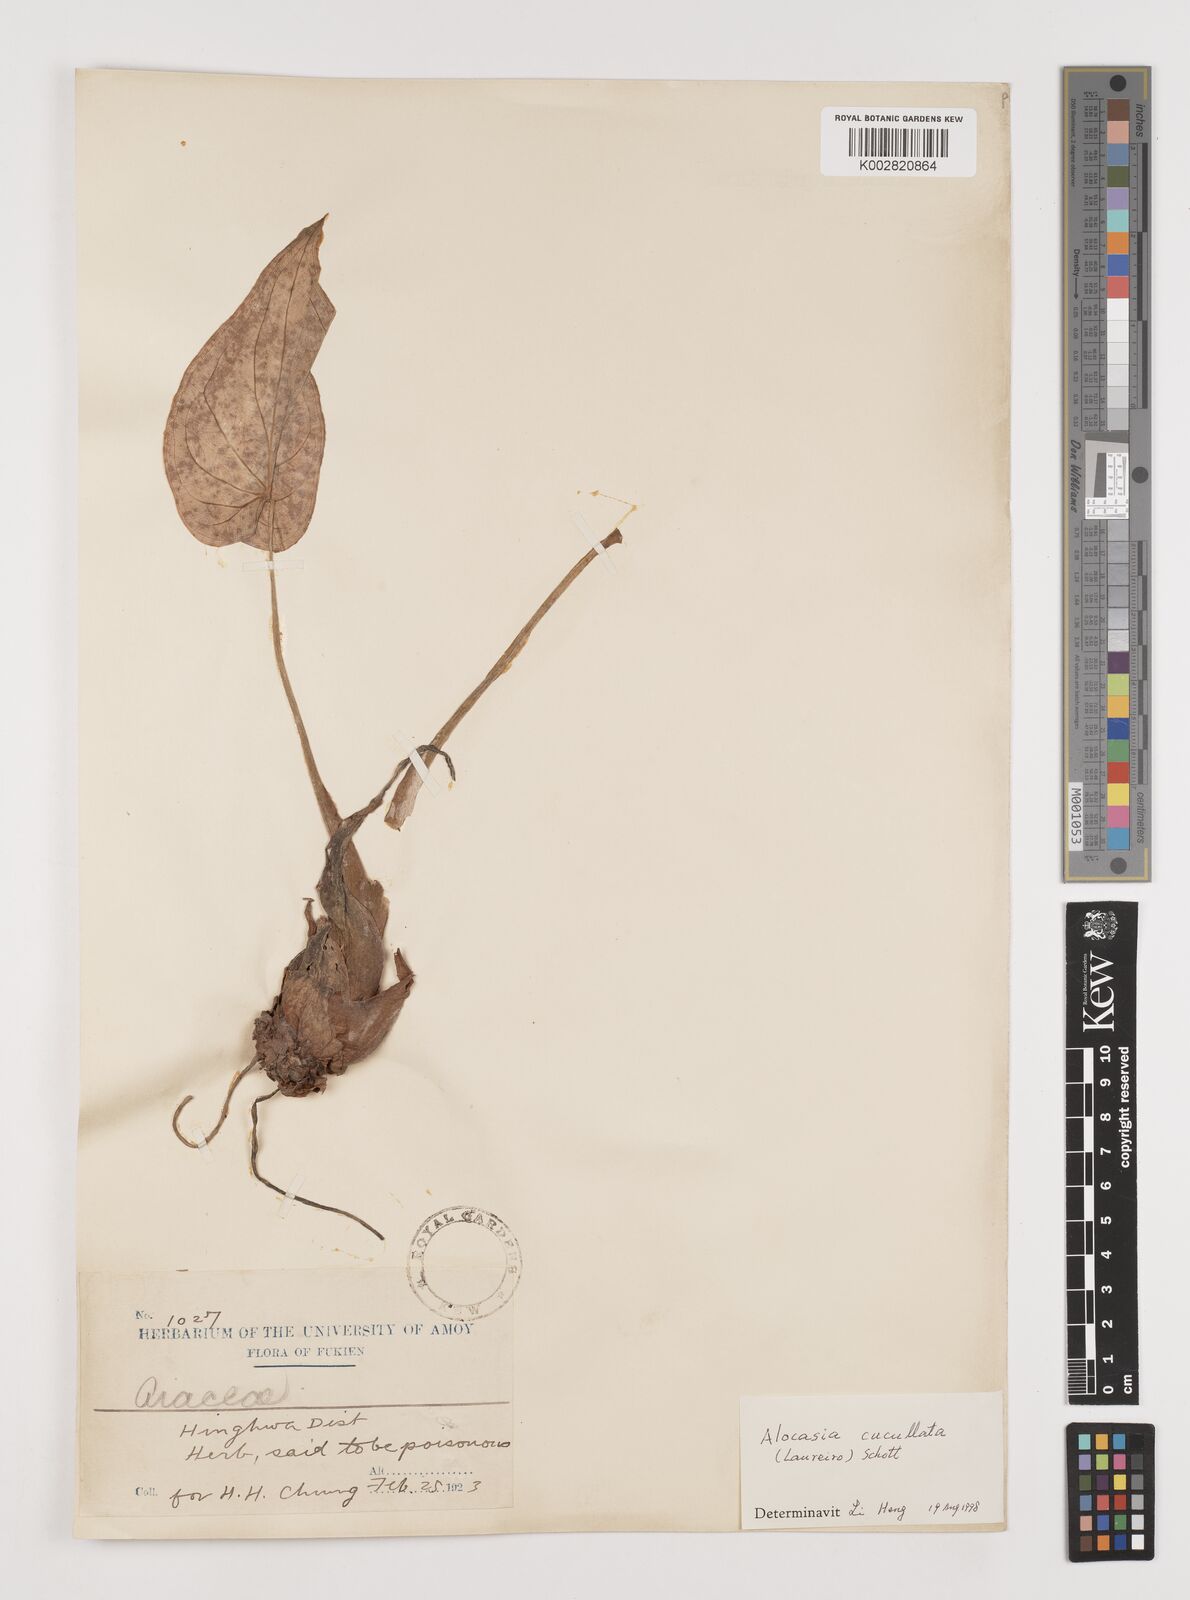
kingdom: Plantae
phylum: Tracheophyta
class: Liliopsida
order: Alismatales
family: Araceae
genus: Alocasia
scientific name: Alocasia cucullata
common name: Buddha's hand
